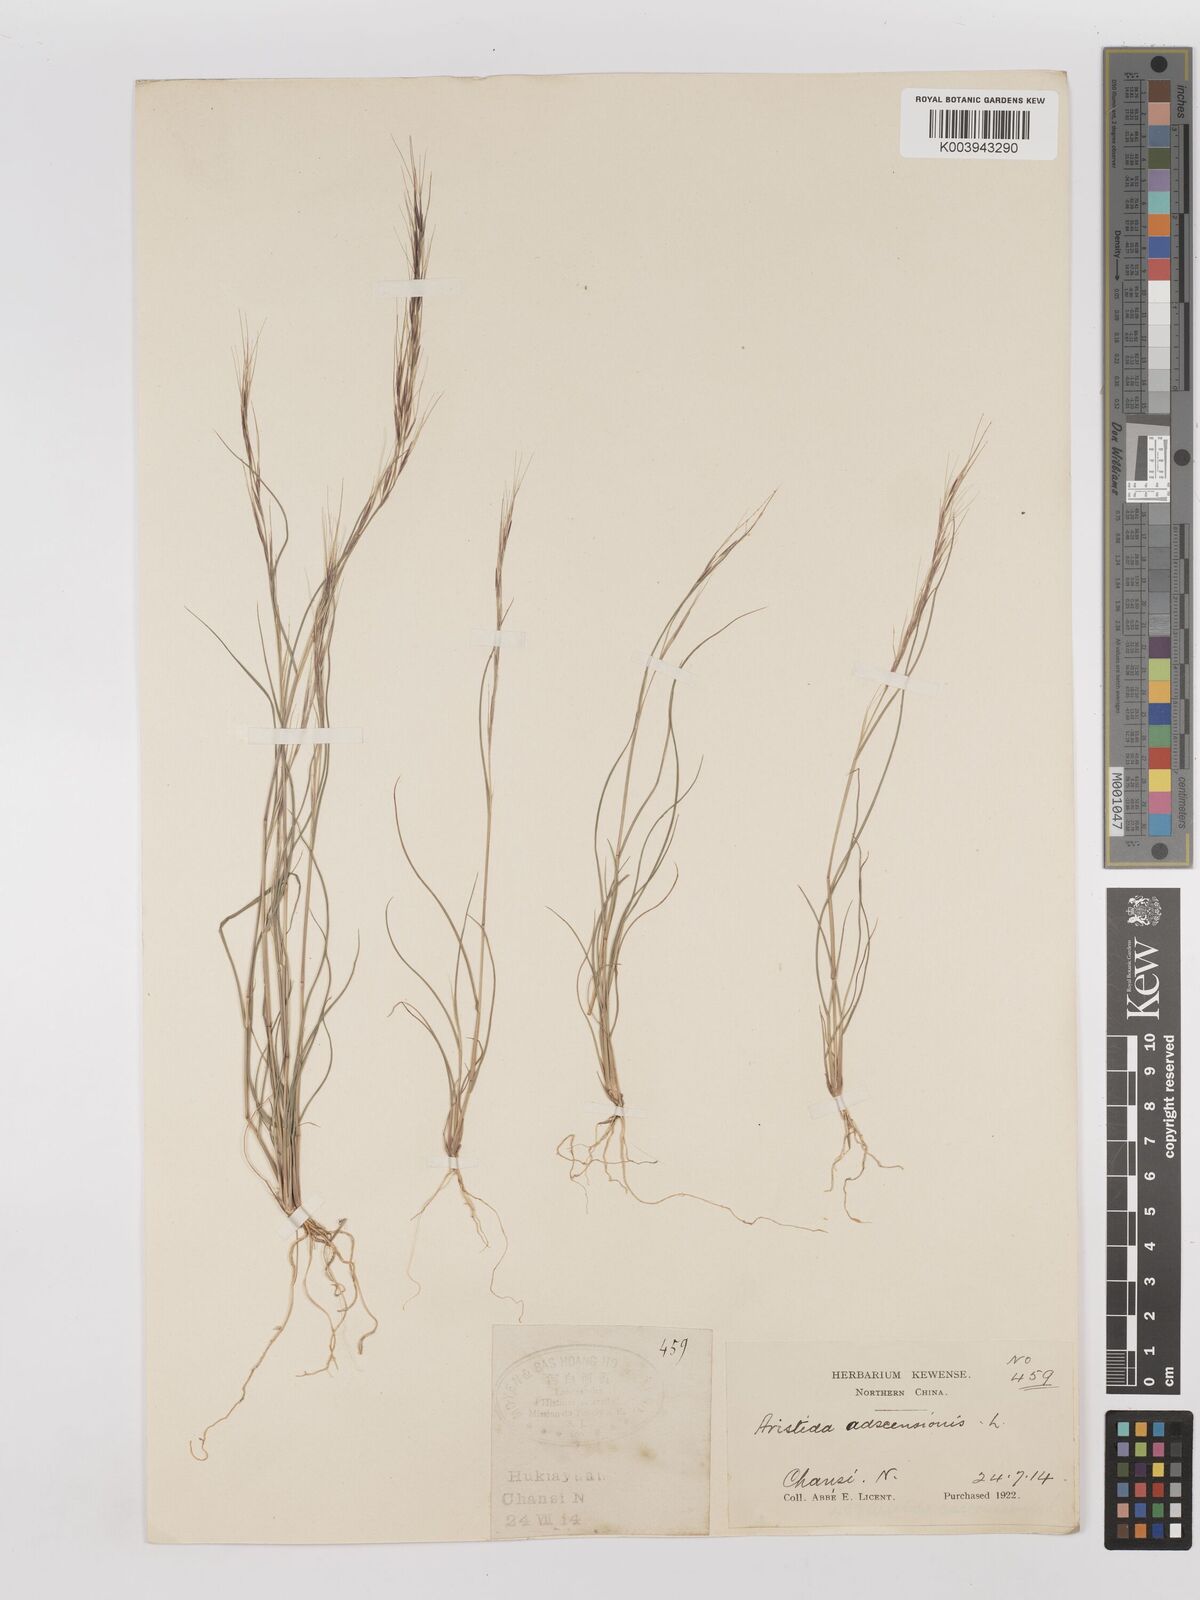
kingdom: Plantae
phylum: Tracheophyta
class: Liliopsida
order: Poales
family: Poaceae
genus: Aristida
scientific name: Aristida adscensionis
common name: Sixweeks threeawn
